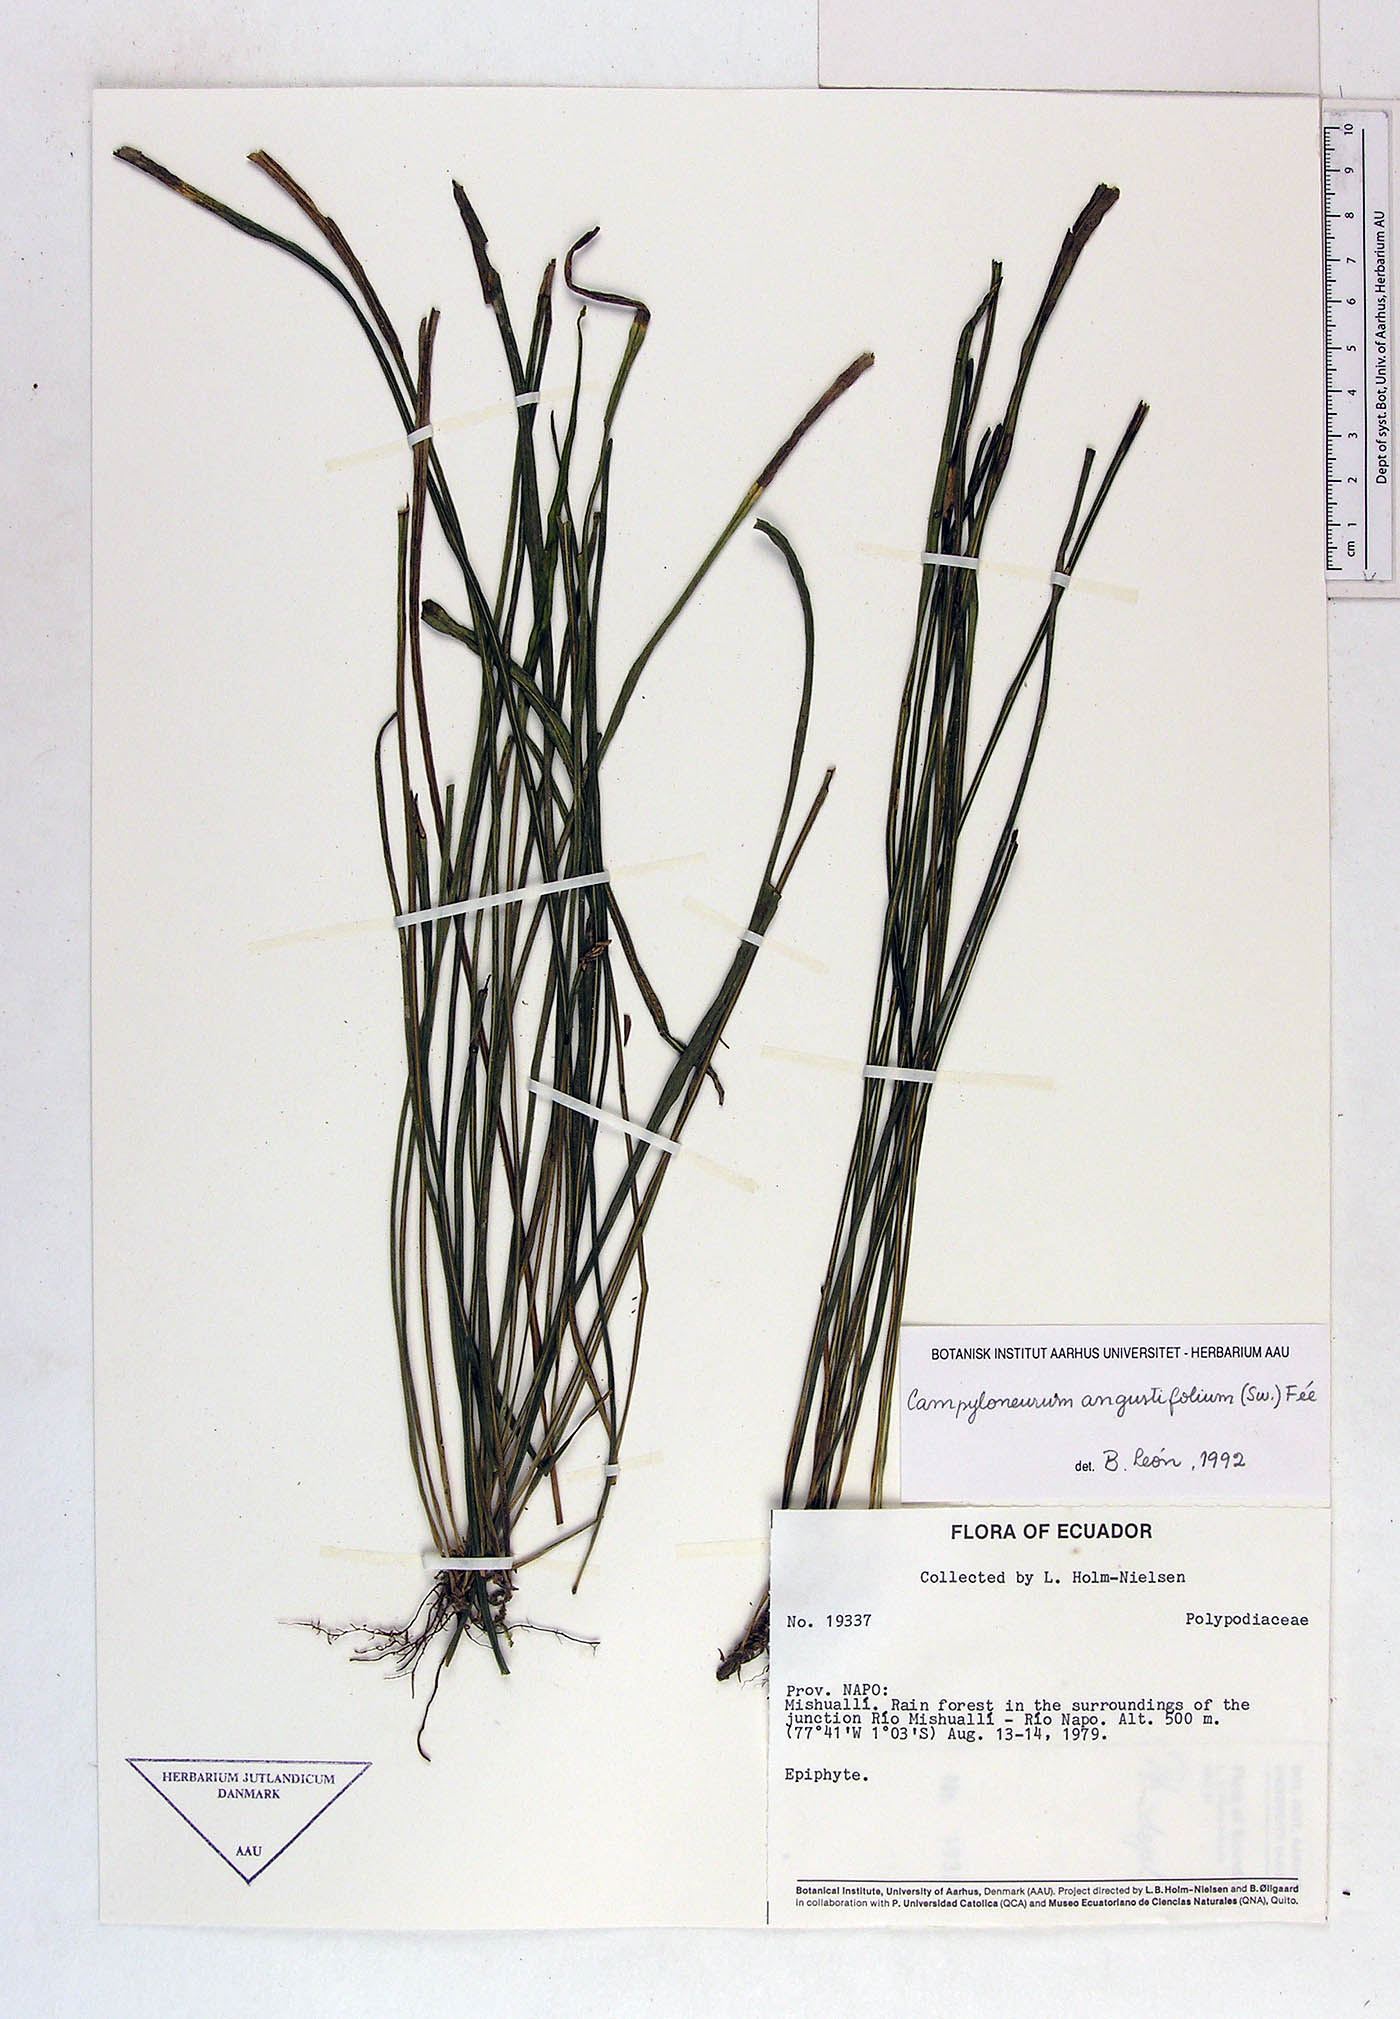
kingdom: Plantae
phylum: Tracheophyta
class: Polypodiopsida
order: Polypodiales
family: Polypodiaceae
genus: Campyloneurum
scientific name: Campyloneurum angustifolium
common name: Narrow-leaf strap fern
